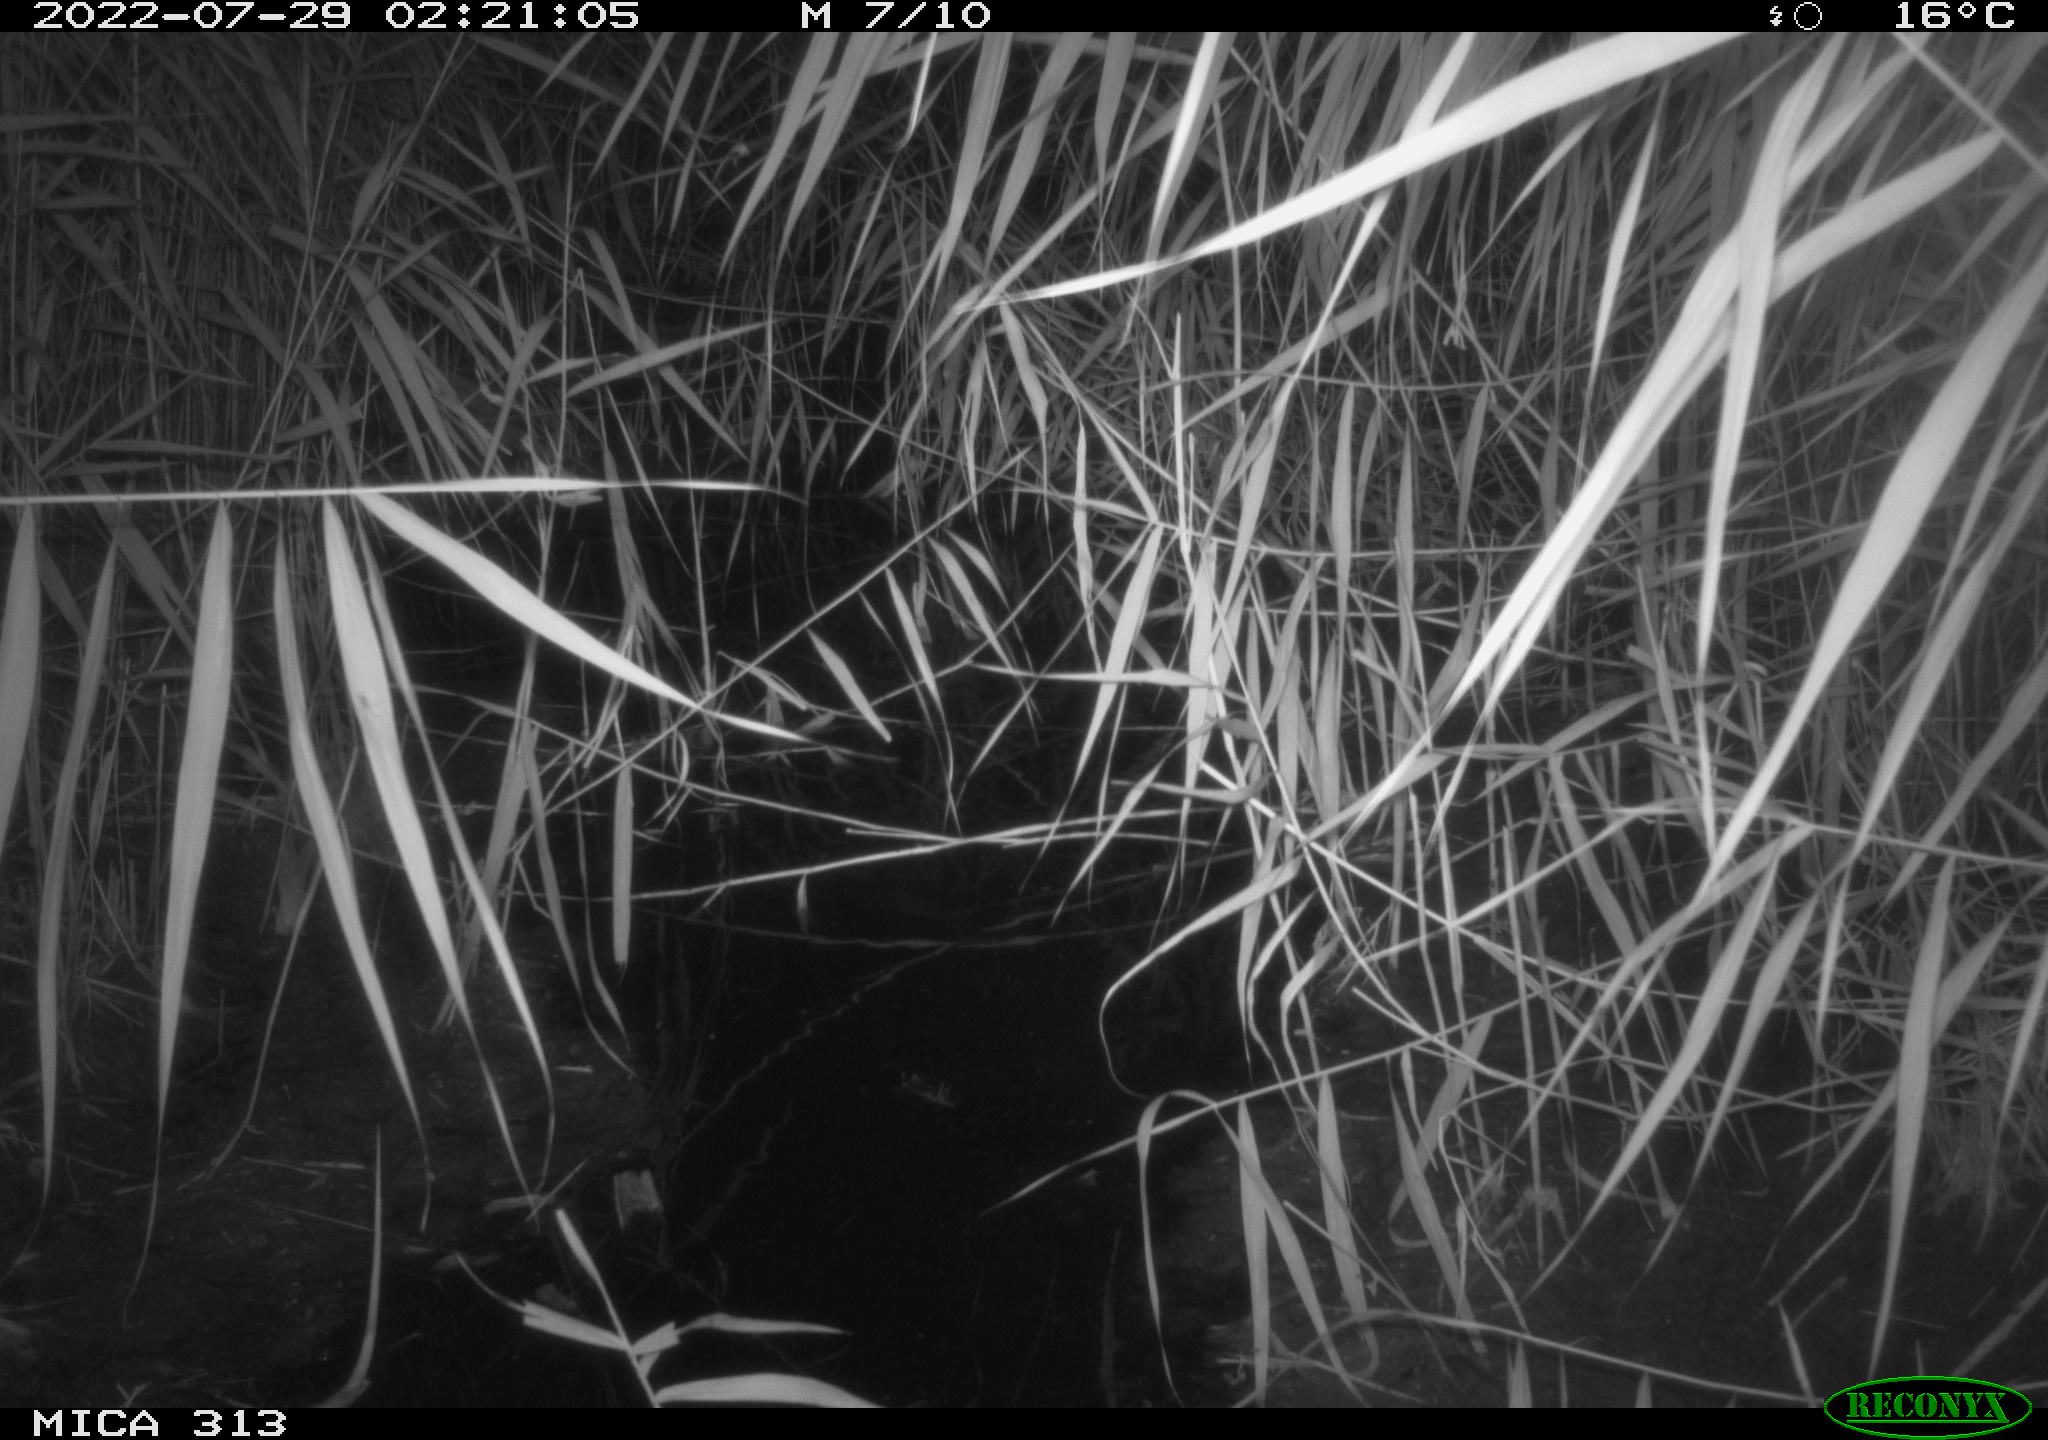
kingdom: Animalia
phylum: Chordata
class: Mammalia
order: Rodentia
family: Muridae
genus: Rattus
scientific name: Rattus norvegicus
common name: Brown rat
